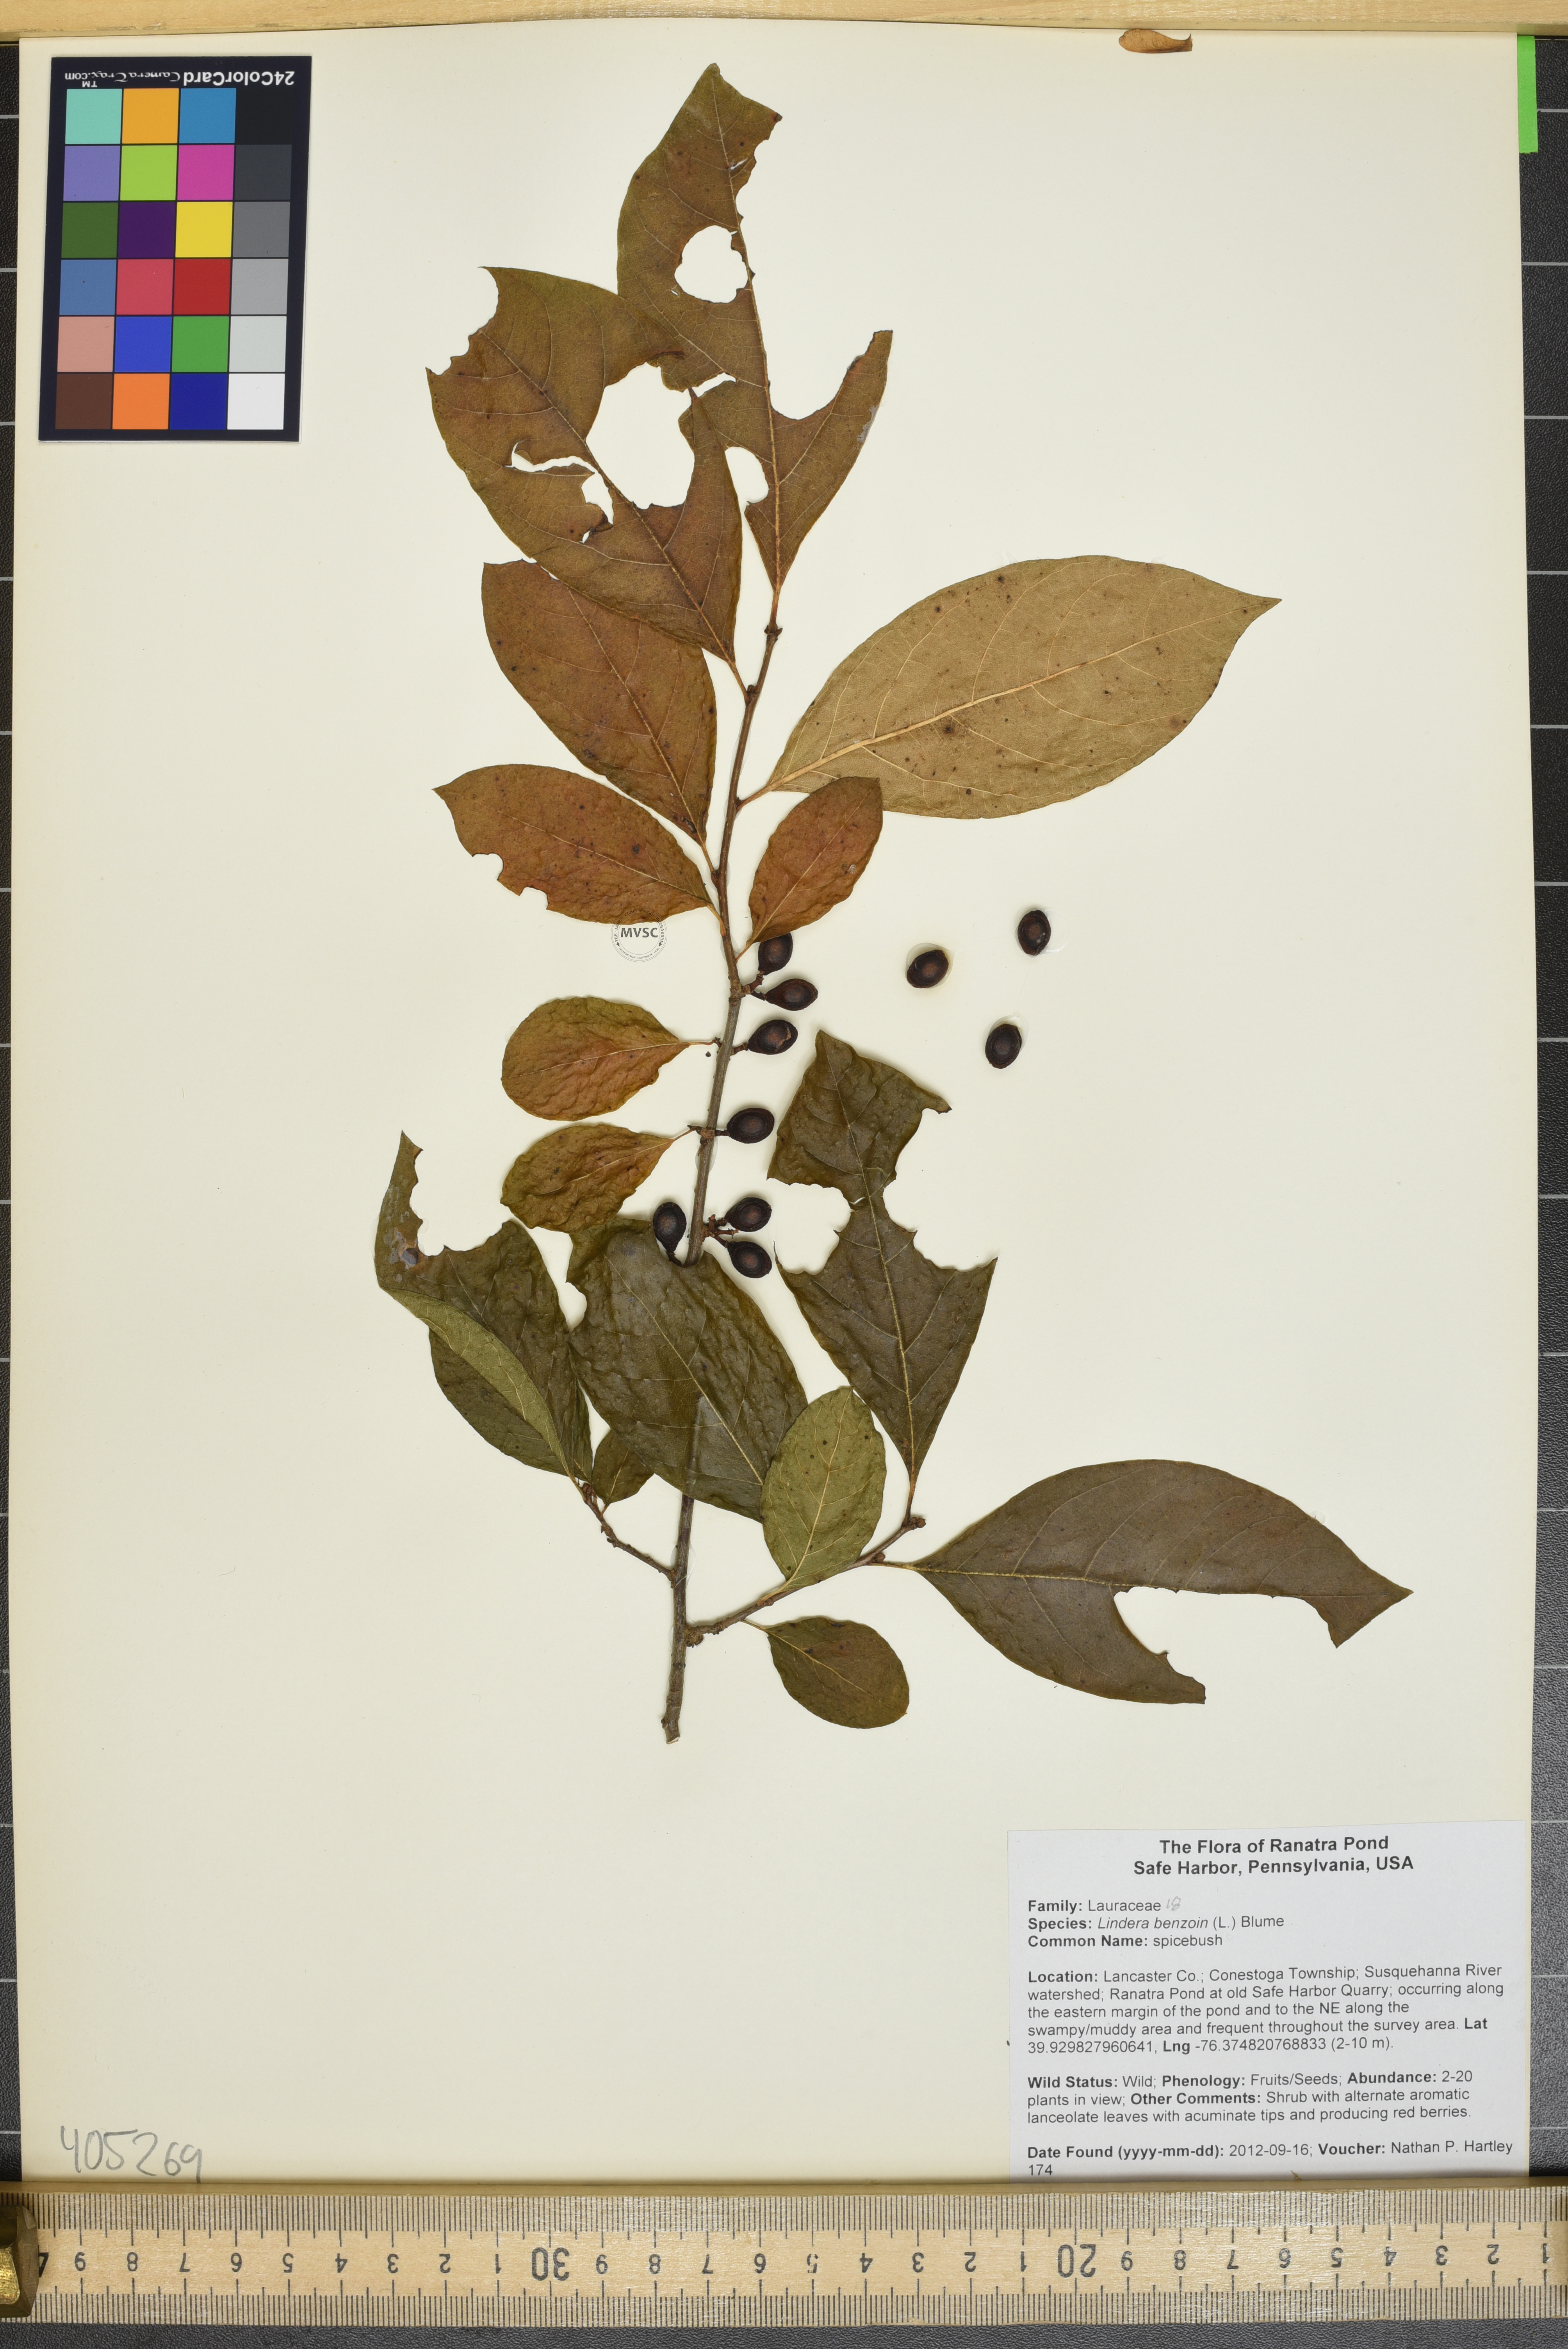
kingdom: Plantae
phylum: Tracheophyta
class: Magnoliopsida
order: Laurales
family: Lauraceae
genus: Lindera
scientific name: Lindera benzoin
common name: spicebush
